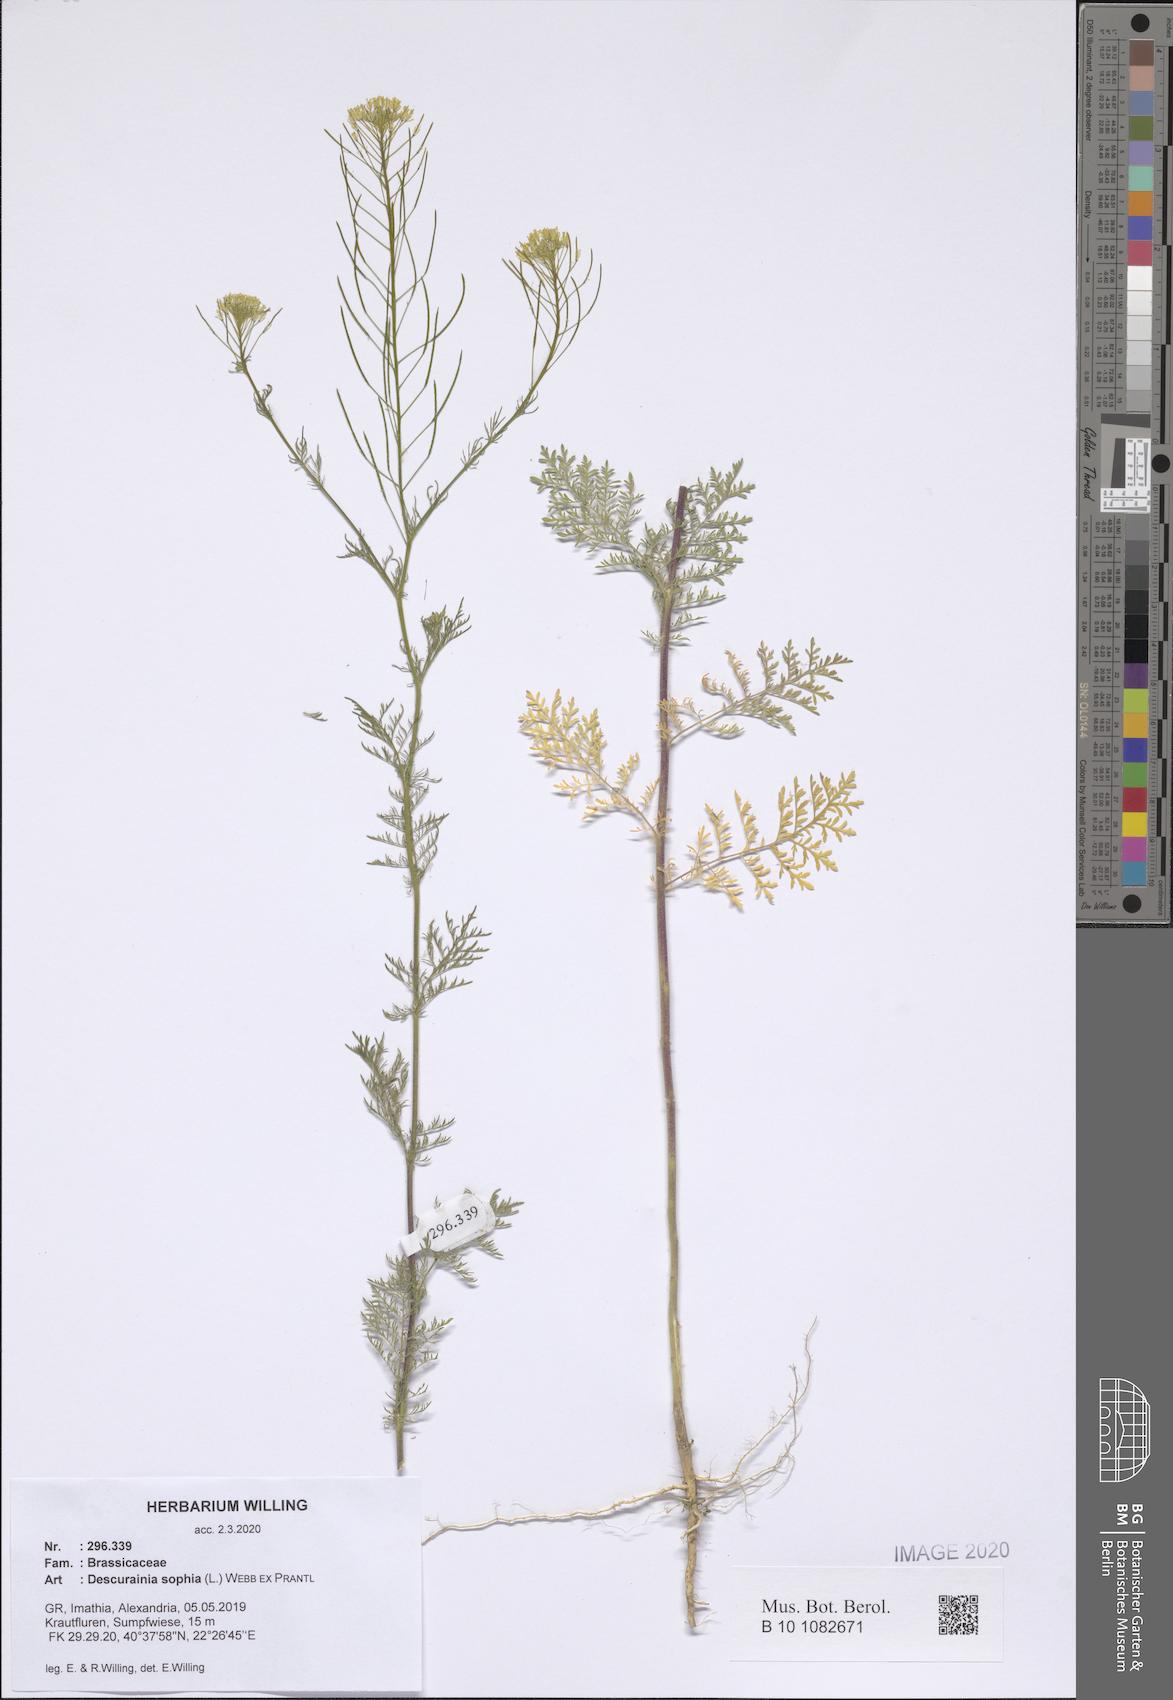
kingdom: Plantae
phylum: Tracheophyta
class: Magnoliopsida
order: Brassicales
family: Brassicaceae
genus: Descurainia
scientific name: Descurainia sophia
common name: Flixweed
